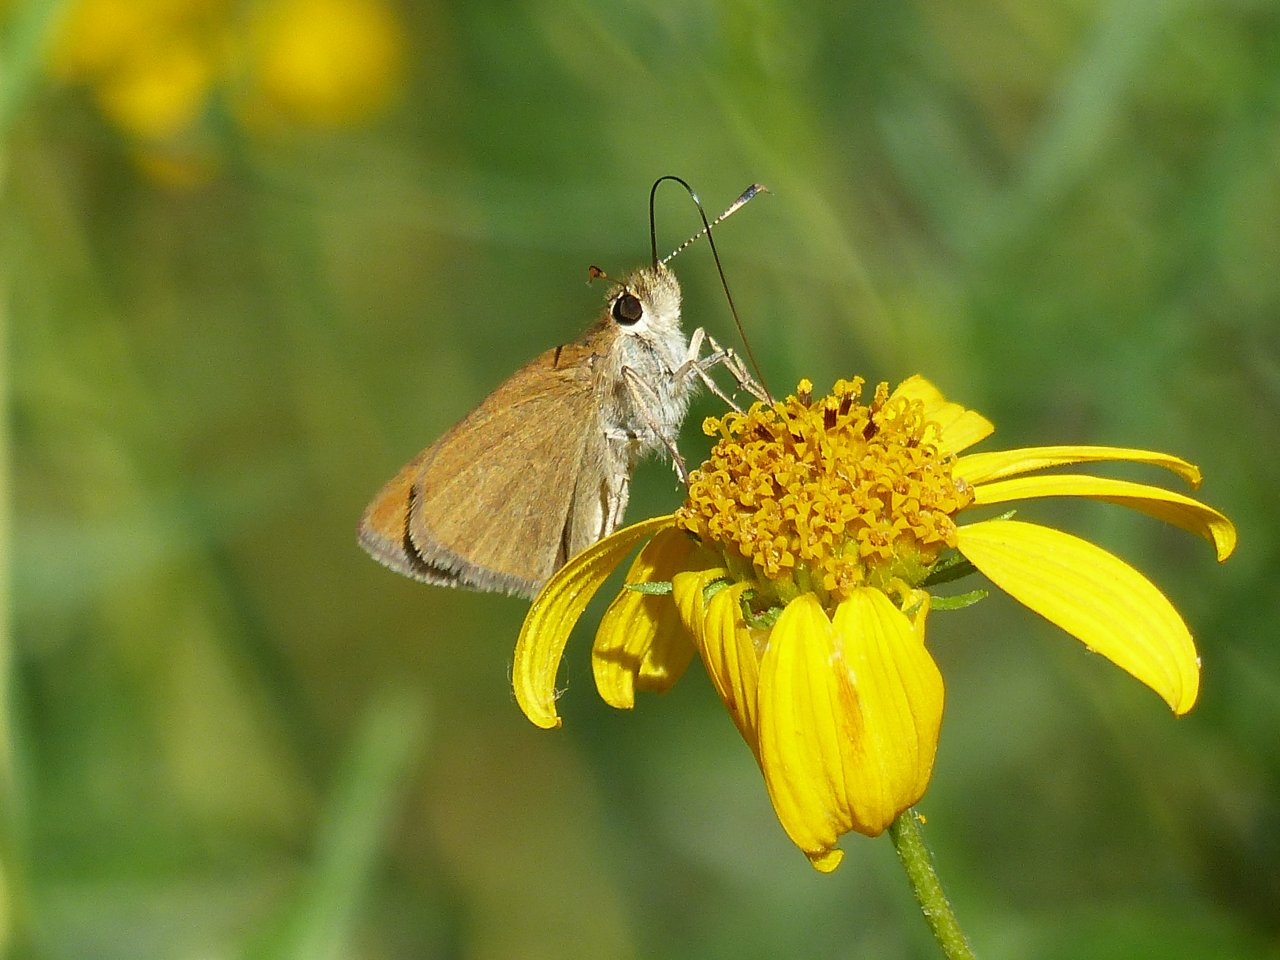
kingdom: Animalia
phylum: Arthropoda
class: Insecta
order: Lepidoptera
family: Hesperiidae
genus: Nastra
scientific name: Nastra julia
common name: Julia's Skipper
